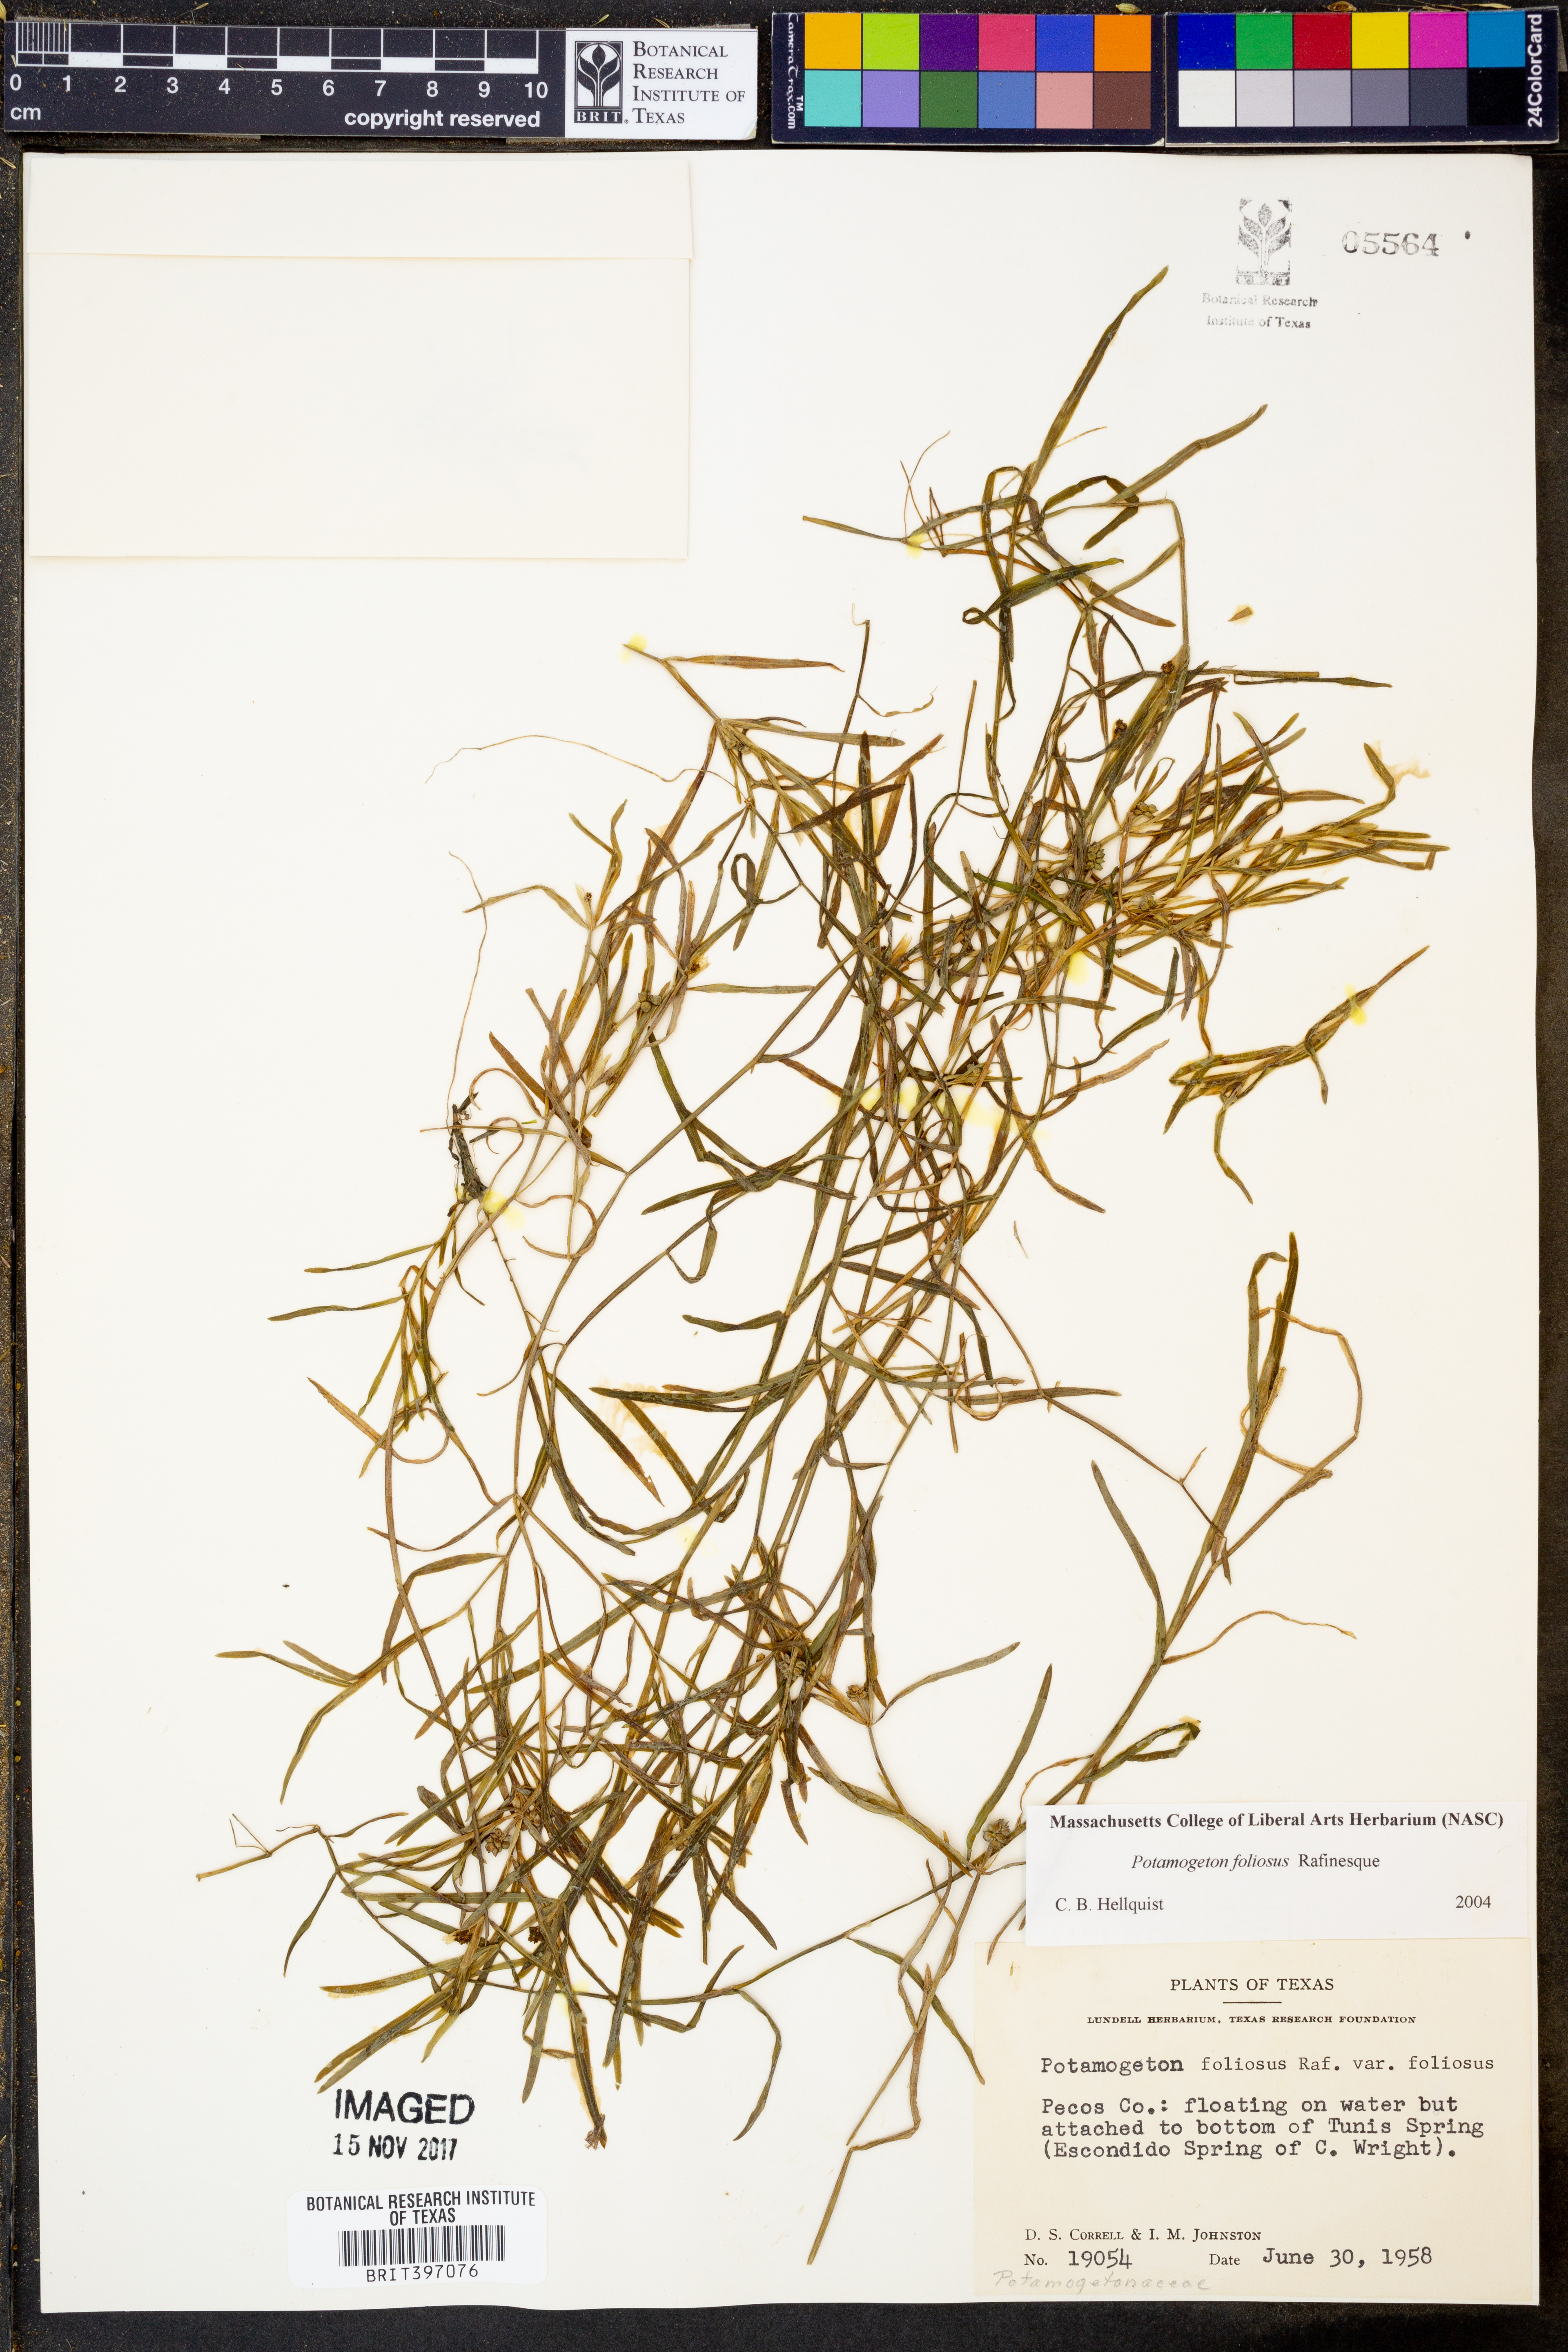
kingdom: Plantae
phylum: Tracheophyta
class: Liliopsida
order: Alismatales
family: Potamogetonaceae
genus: Potamogeton
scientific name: Potamogeton foliosus
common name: Leafy pondweed
